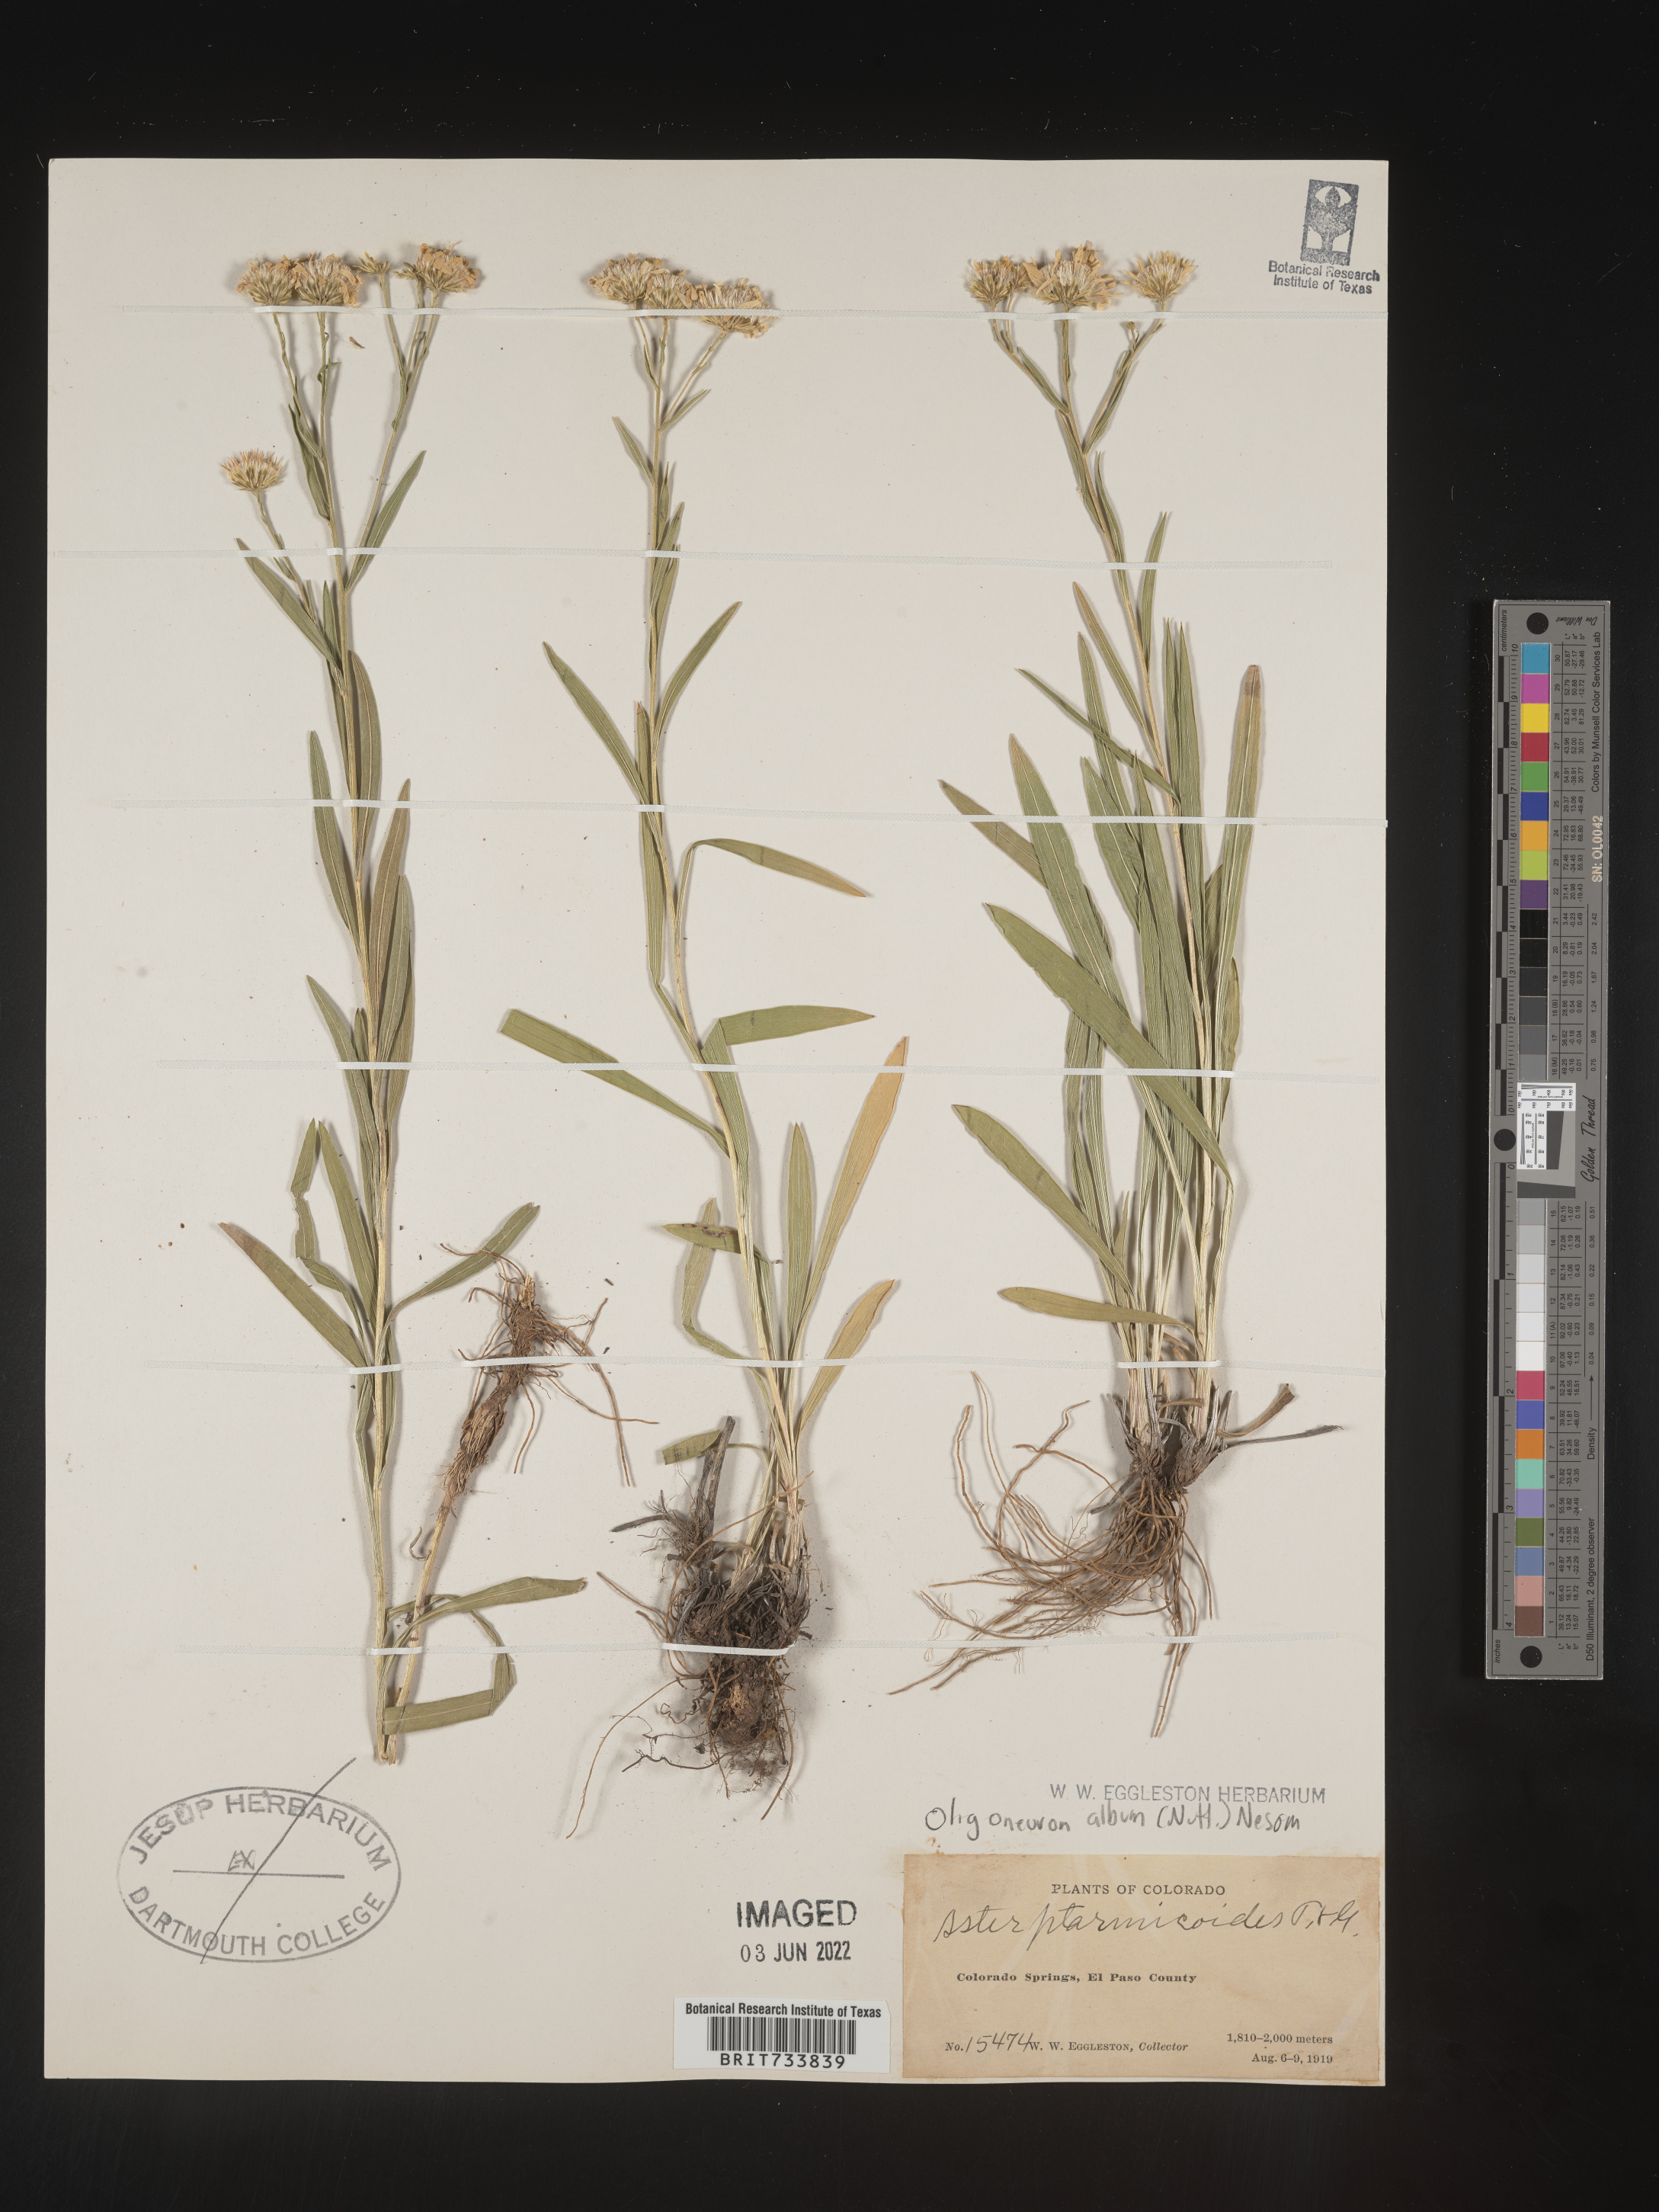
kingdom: Plantae
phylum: Tracheophyta
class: Magnoliopsida
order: Asterales
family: Asteraceae
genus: Solidago
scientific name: Solidago ptarmicoides
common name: White flat-top goldenrod
